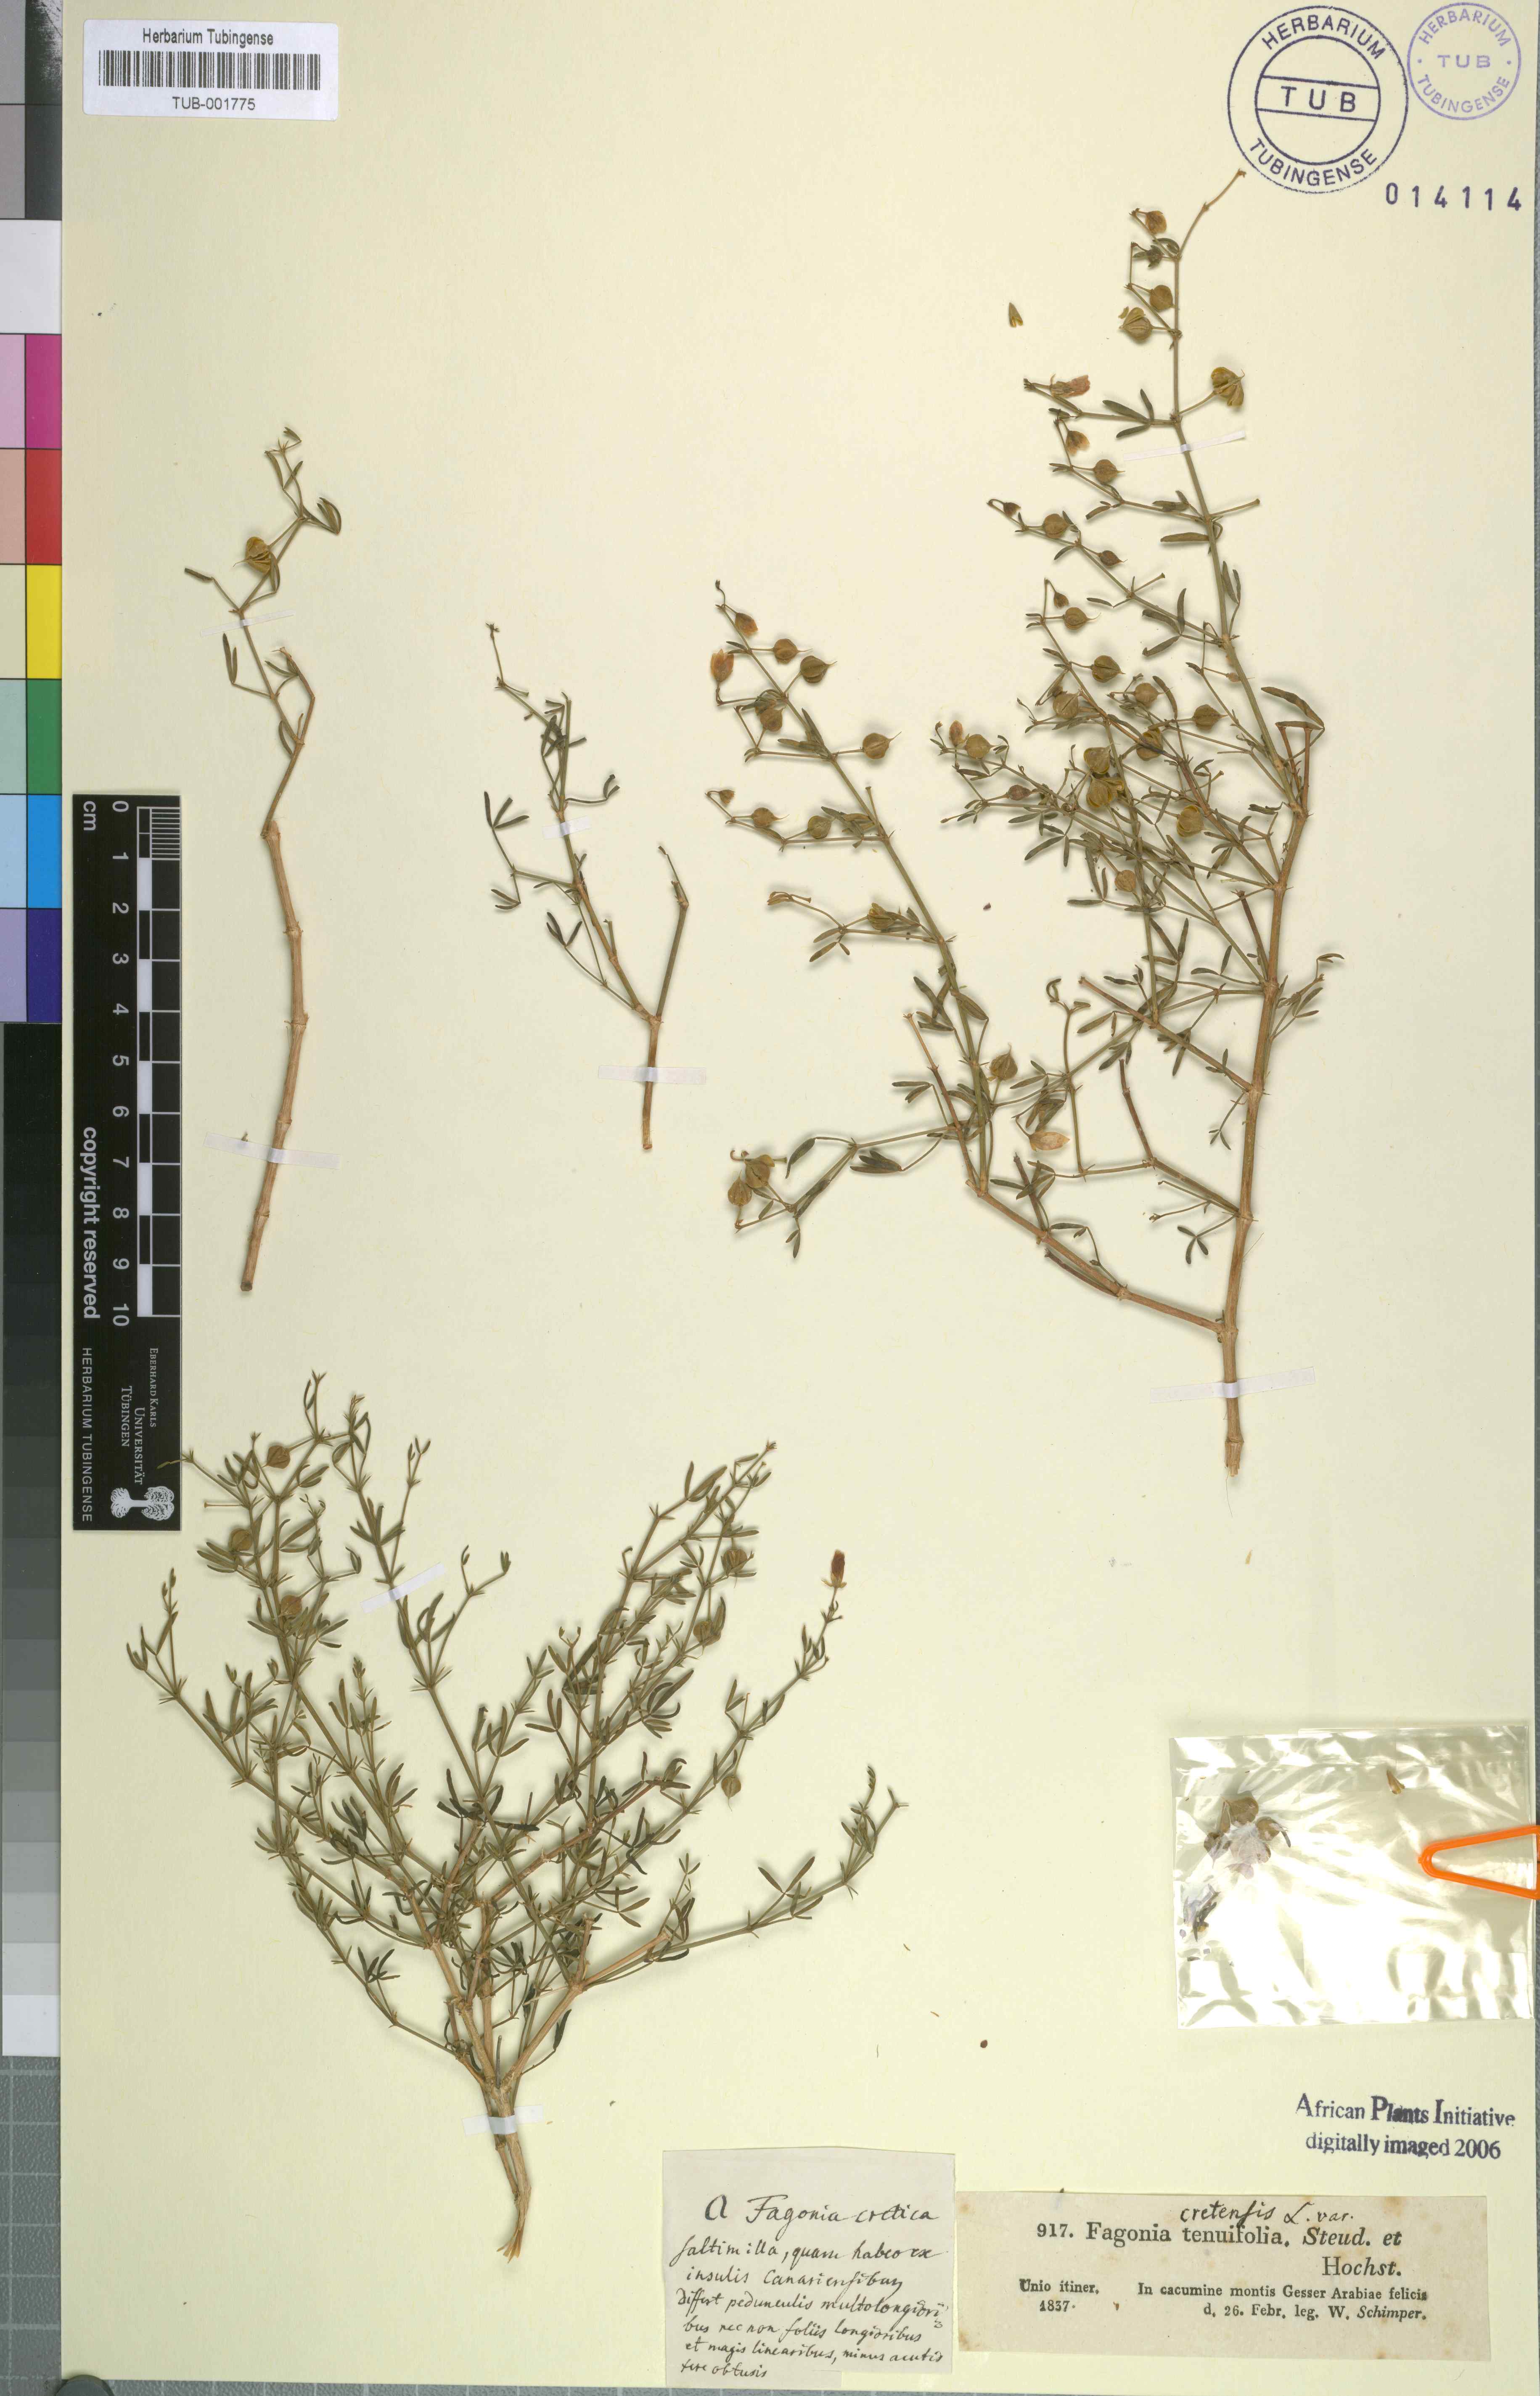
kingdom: Plantae
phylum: Tracheophyta
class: Magnoliopsida
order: Zygophyllales
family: Zygophyllaceae
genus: Fagonia
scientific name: Fagonia cretica
